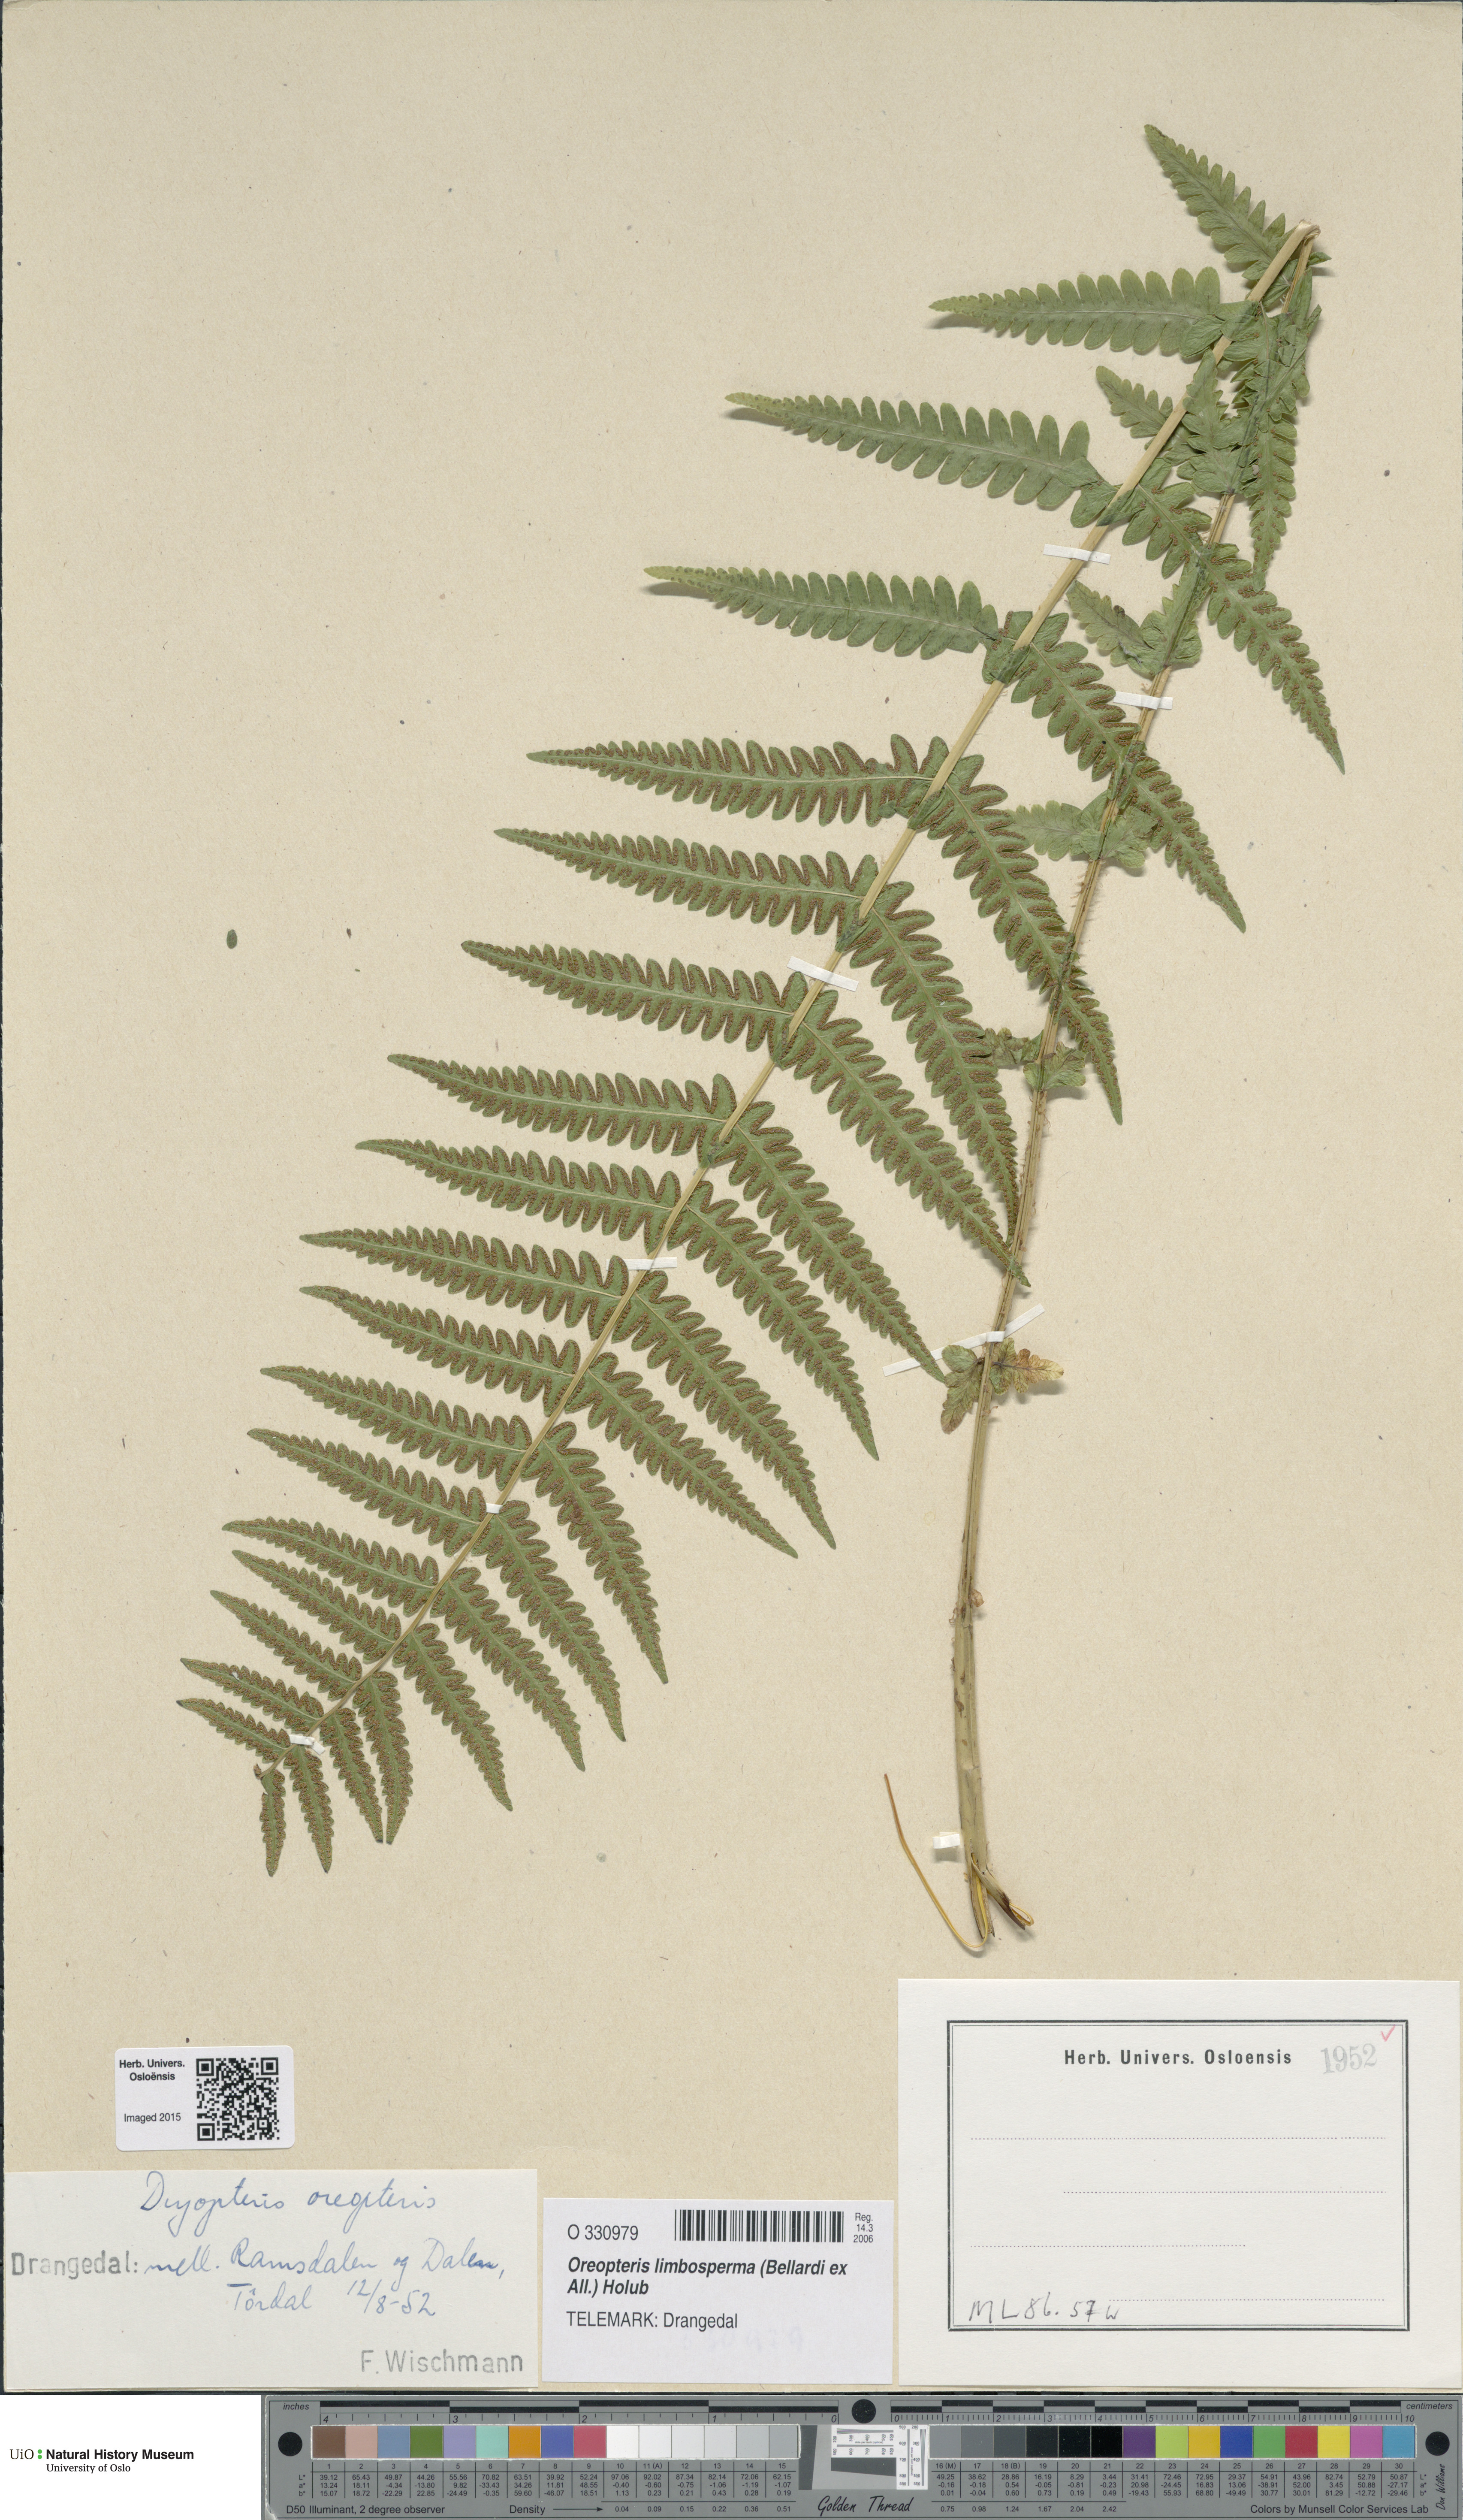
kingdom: Plantae
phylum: Tracheophyta
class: Polypodiopsida
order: Polypodiales
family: Thelypteridaceae
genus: Oreopteris
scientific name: Oreopteris limbosperma
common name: Lemon-scented fern
